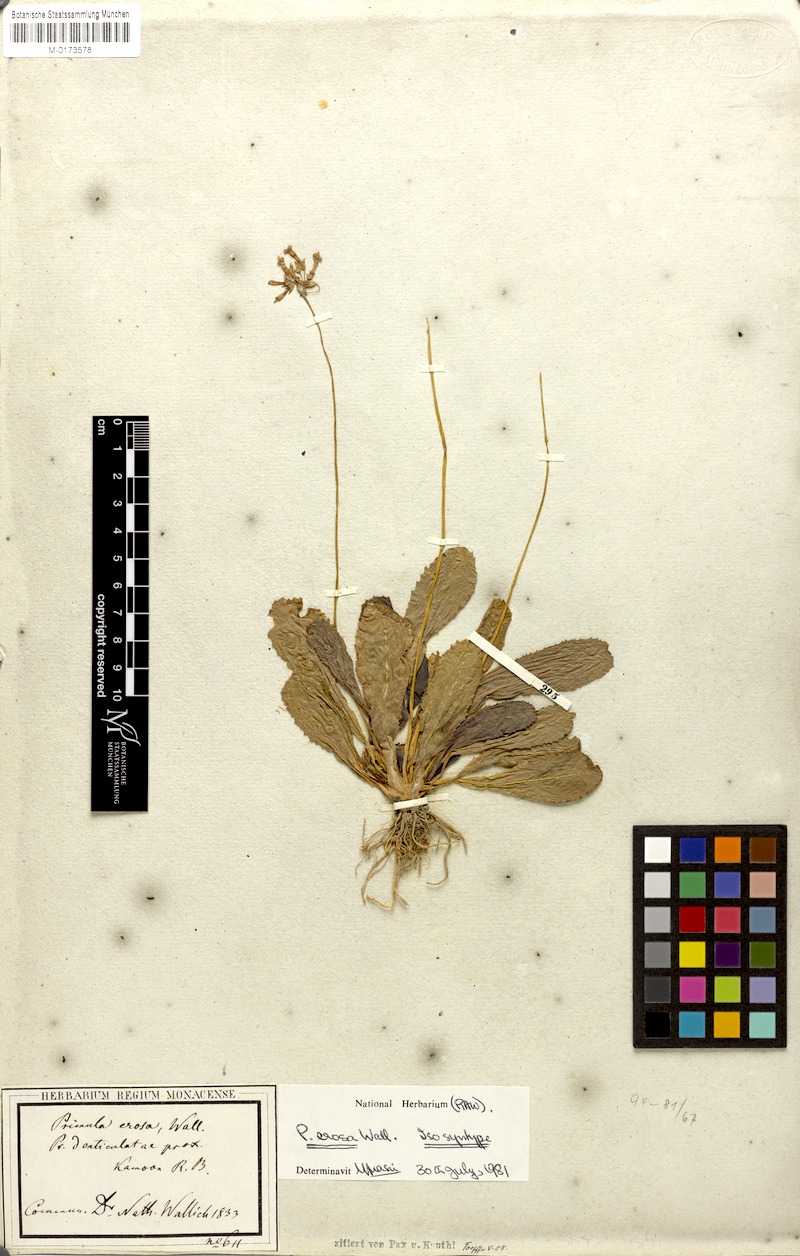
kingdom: Plantae
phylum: Tracheophyta
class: Magnoliopsida
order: Ericales
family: Primulaceae
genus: Primula
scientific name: Primula denticulata
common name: Drumstick primula
